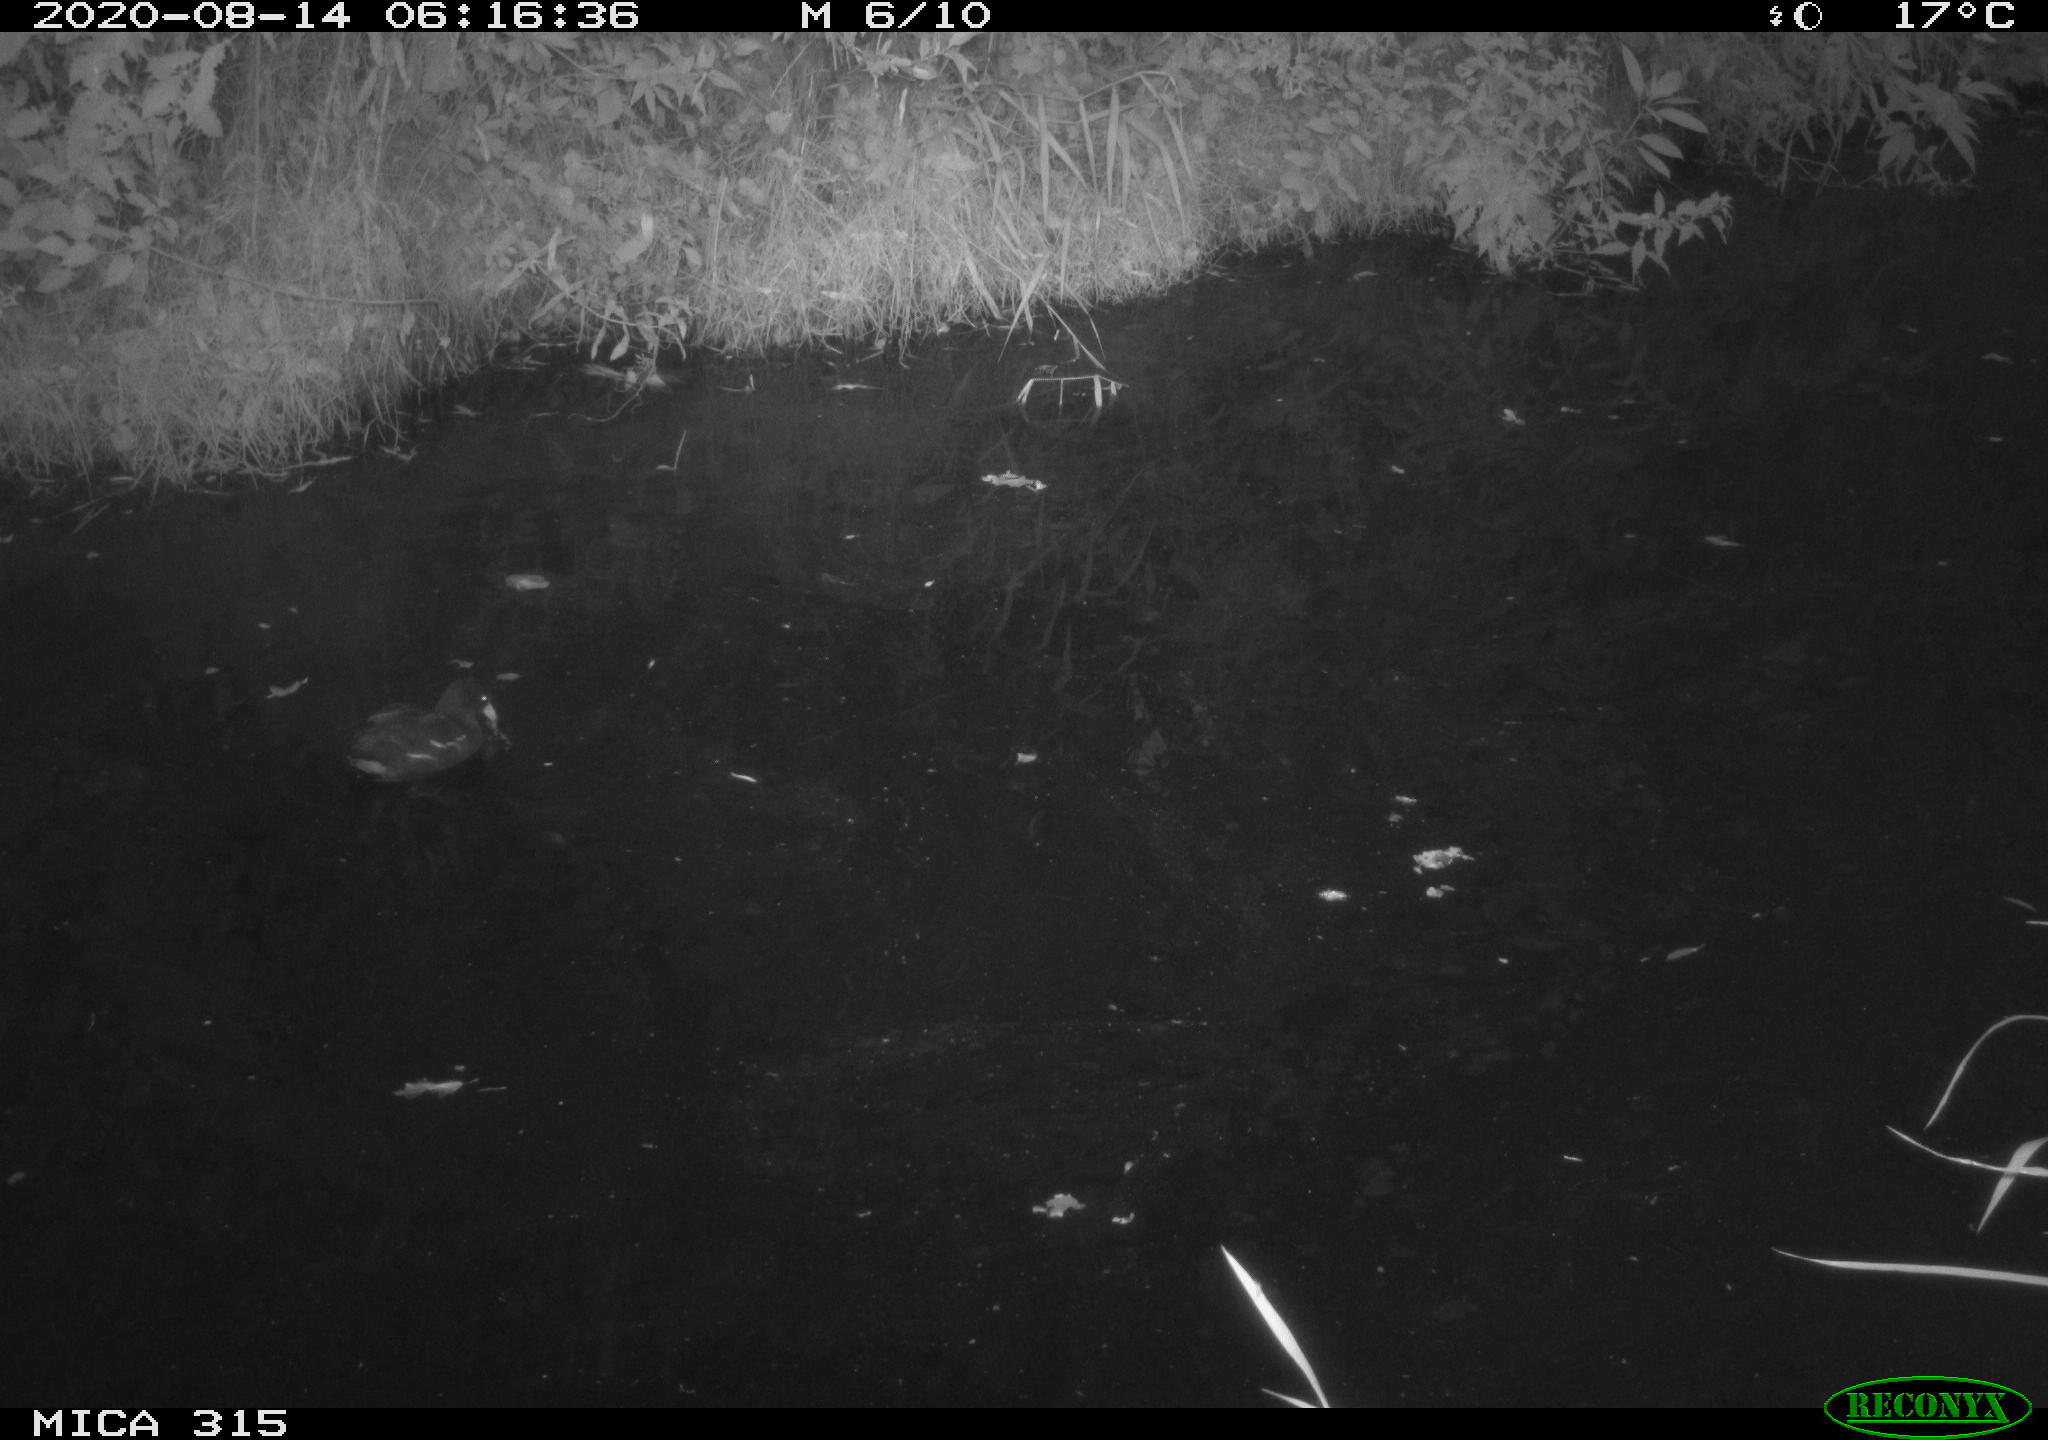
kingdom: Animalia
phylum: Chordata
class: Aves
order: Gruiformes
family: Rallidae
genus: Gallinula
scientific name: Gallinula chloropus
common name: Common moorhen
